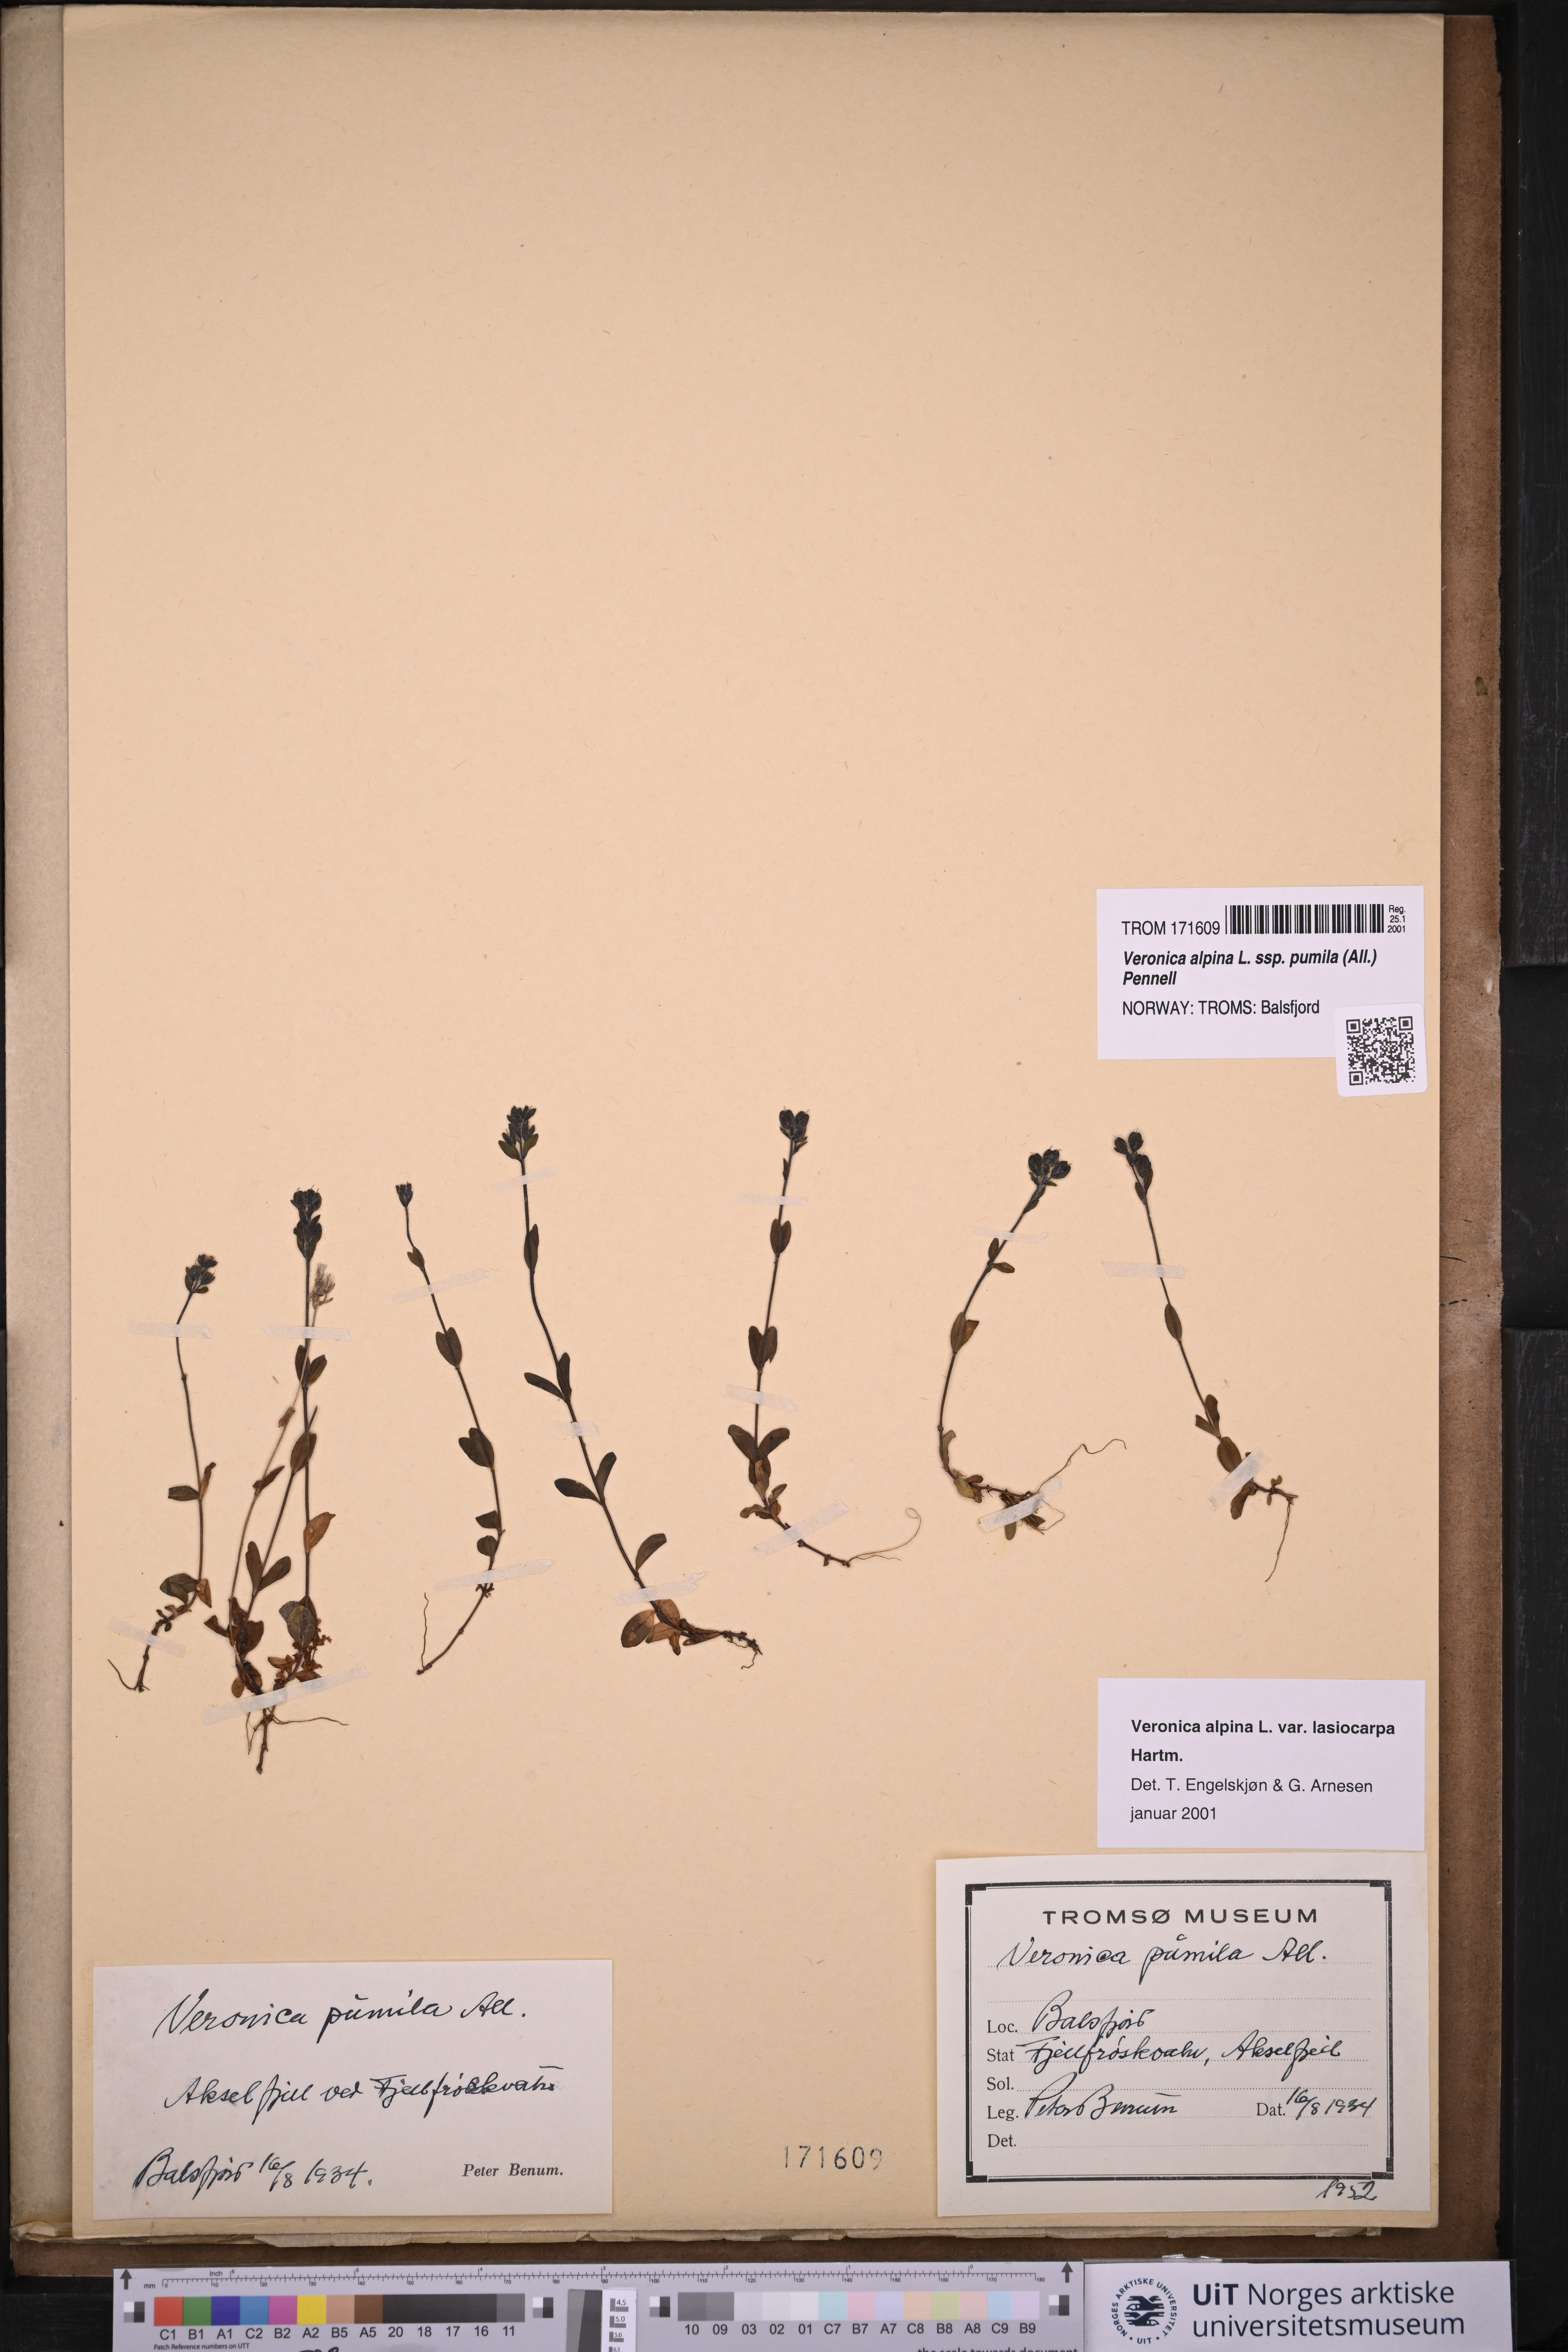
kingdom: Plantae
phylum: Tracheophyta
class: Magnoliopsida
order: Lamiales
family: Plantaginaceae
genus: Veronica
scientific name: Veronica alpina
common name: Alpine speedwell
